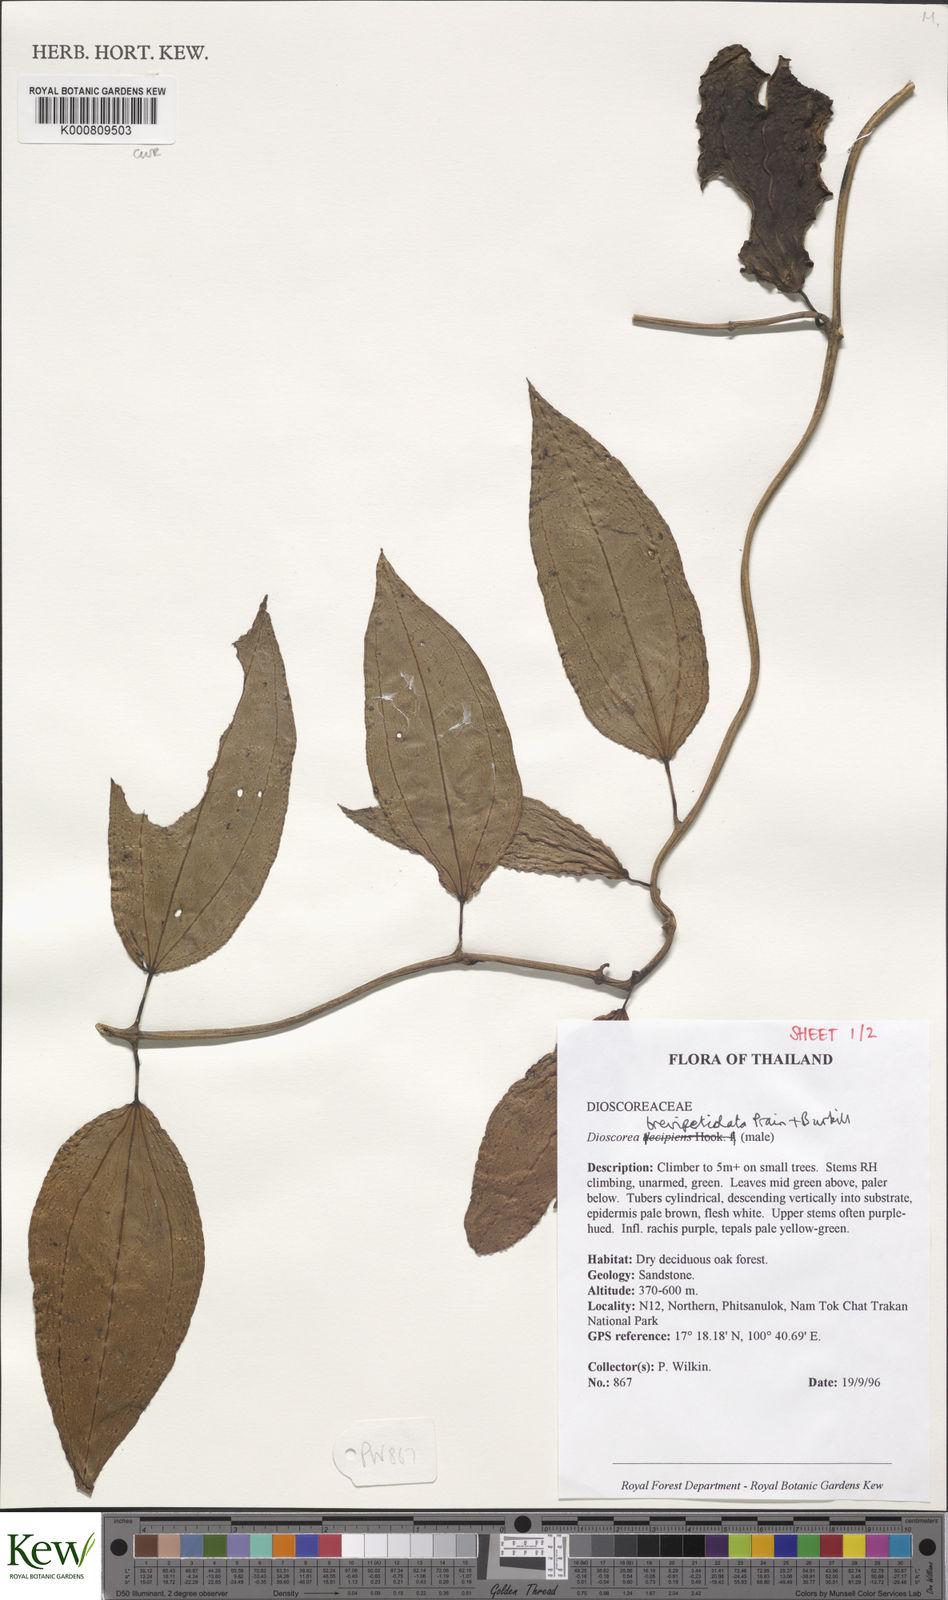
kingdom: Plantae
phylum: Tracheophyta
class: Liliopsida
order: Dioscoreales
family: Dioscoreaceae
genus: Dioscorea
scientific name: Dioscorea brevipetiolata
